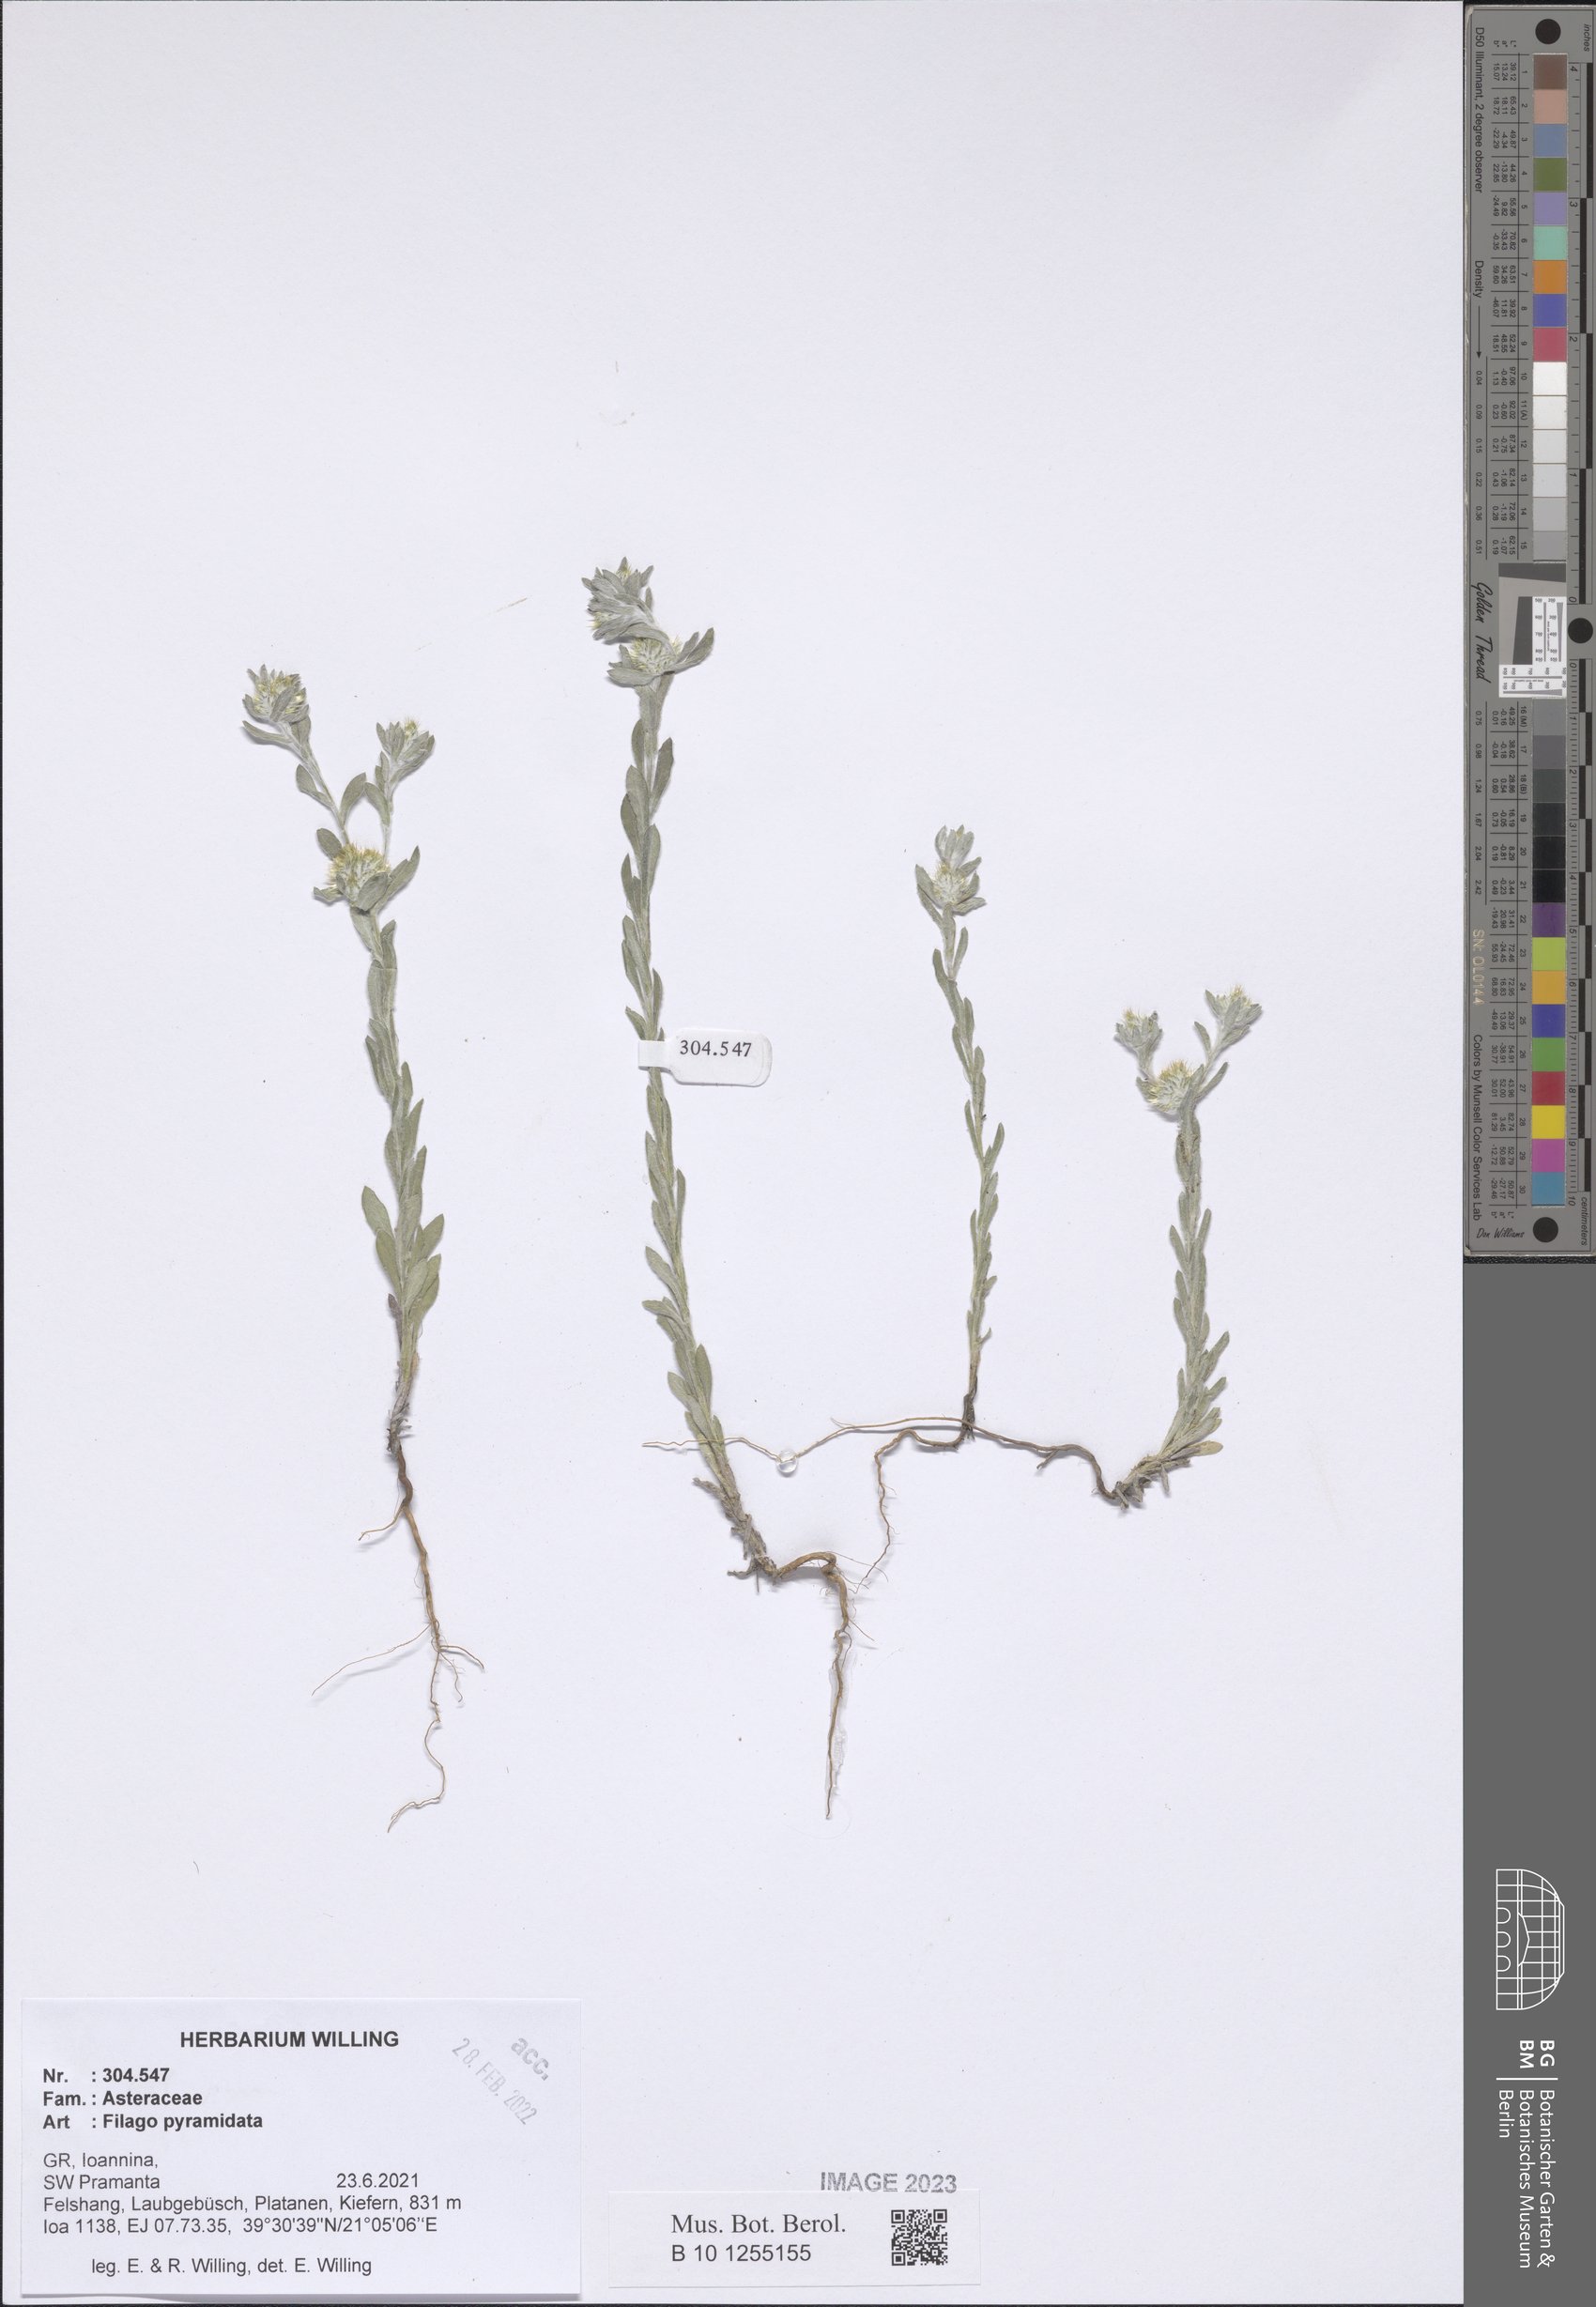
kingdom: Plantae
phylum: Tracheophyta
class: Magnoliopsida
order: Asterales
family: Asteraceae
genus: Filago
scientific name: Filago pyramidata
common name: Broad-leaved cudweed
